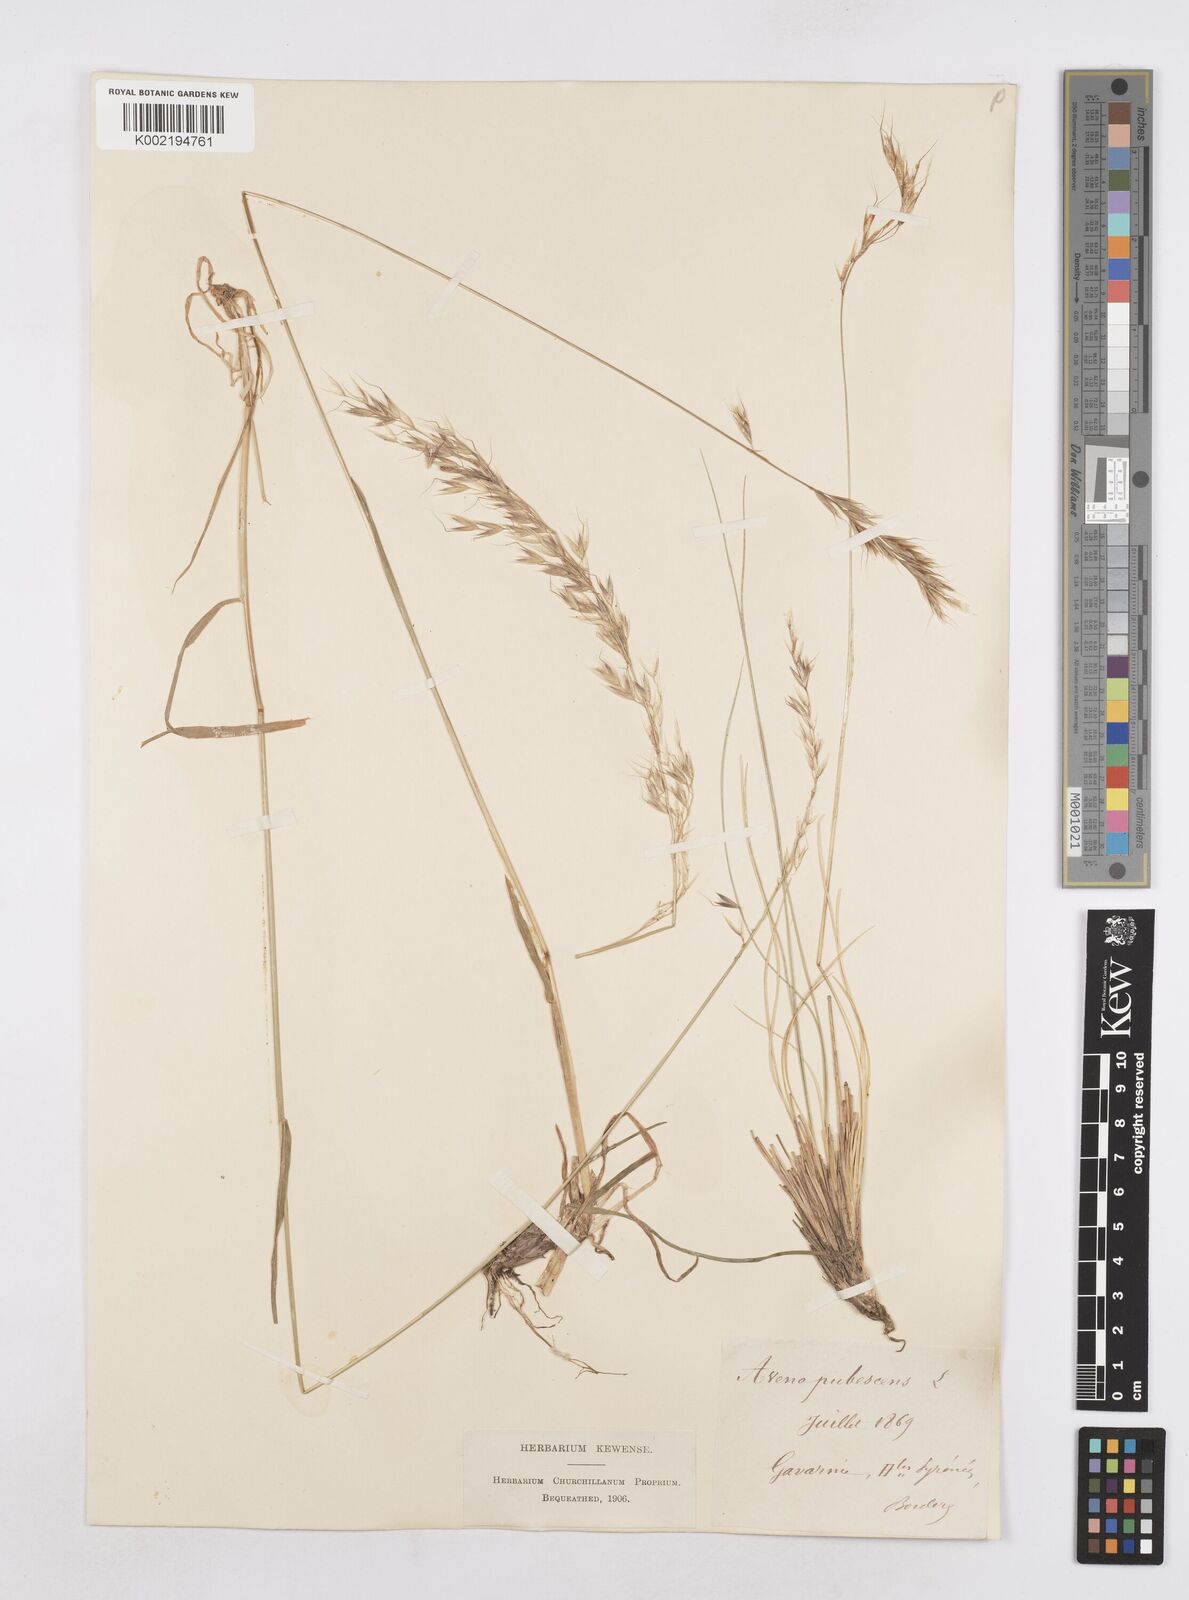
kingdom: Plantae
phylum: Tracheophyta
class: Liliopsida
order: Poales
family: Poaceae
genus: Avenula
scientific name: Avenula pubescens
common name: Downy alpine oatgrass
